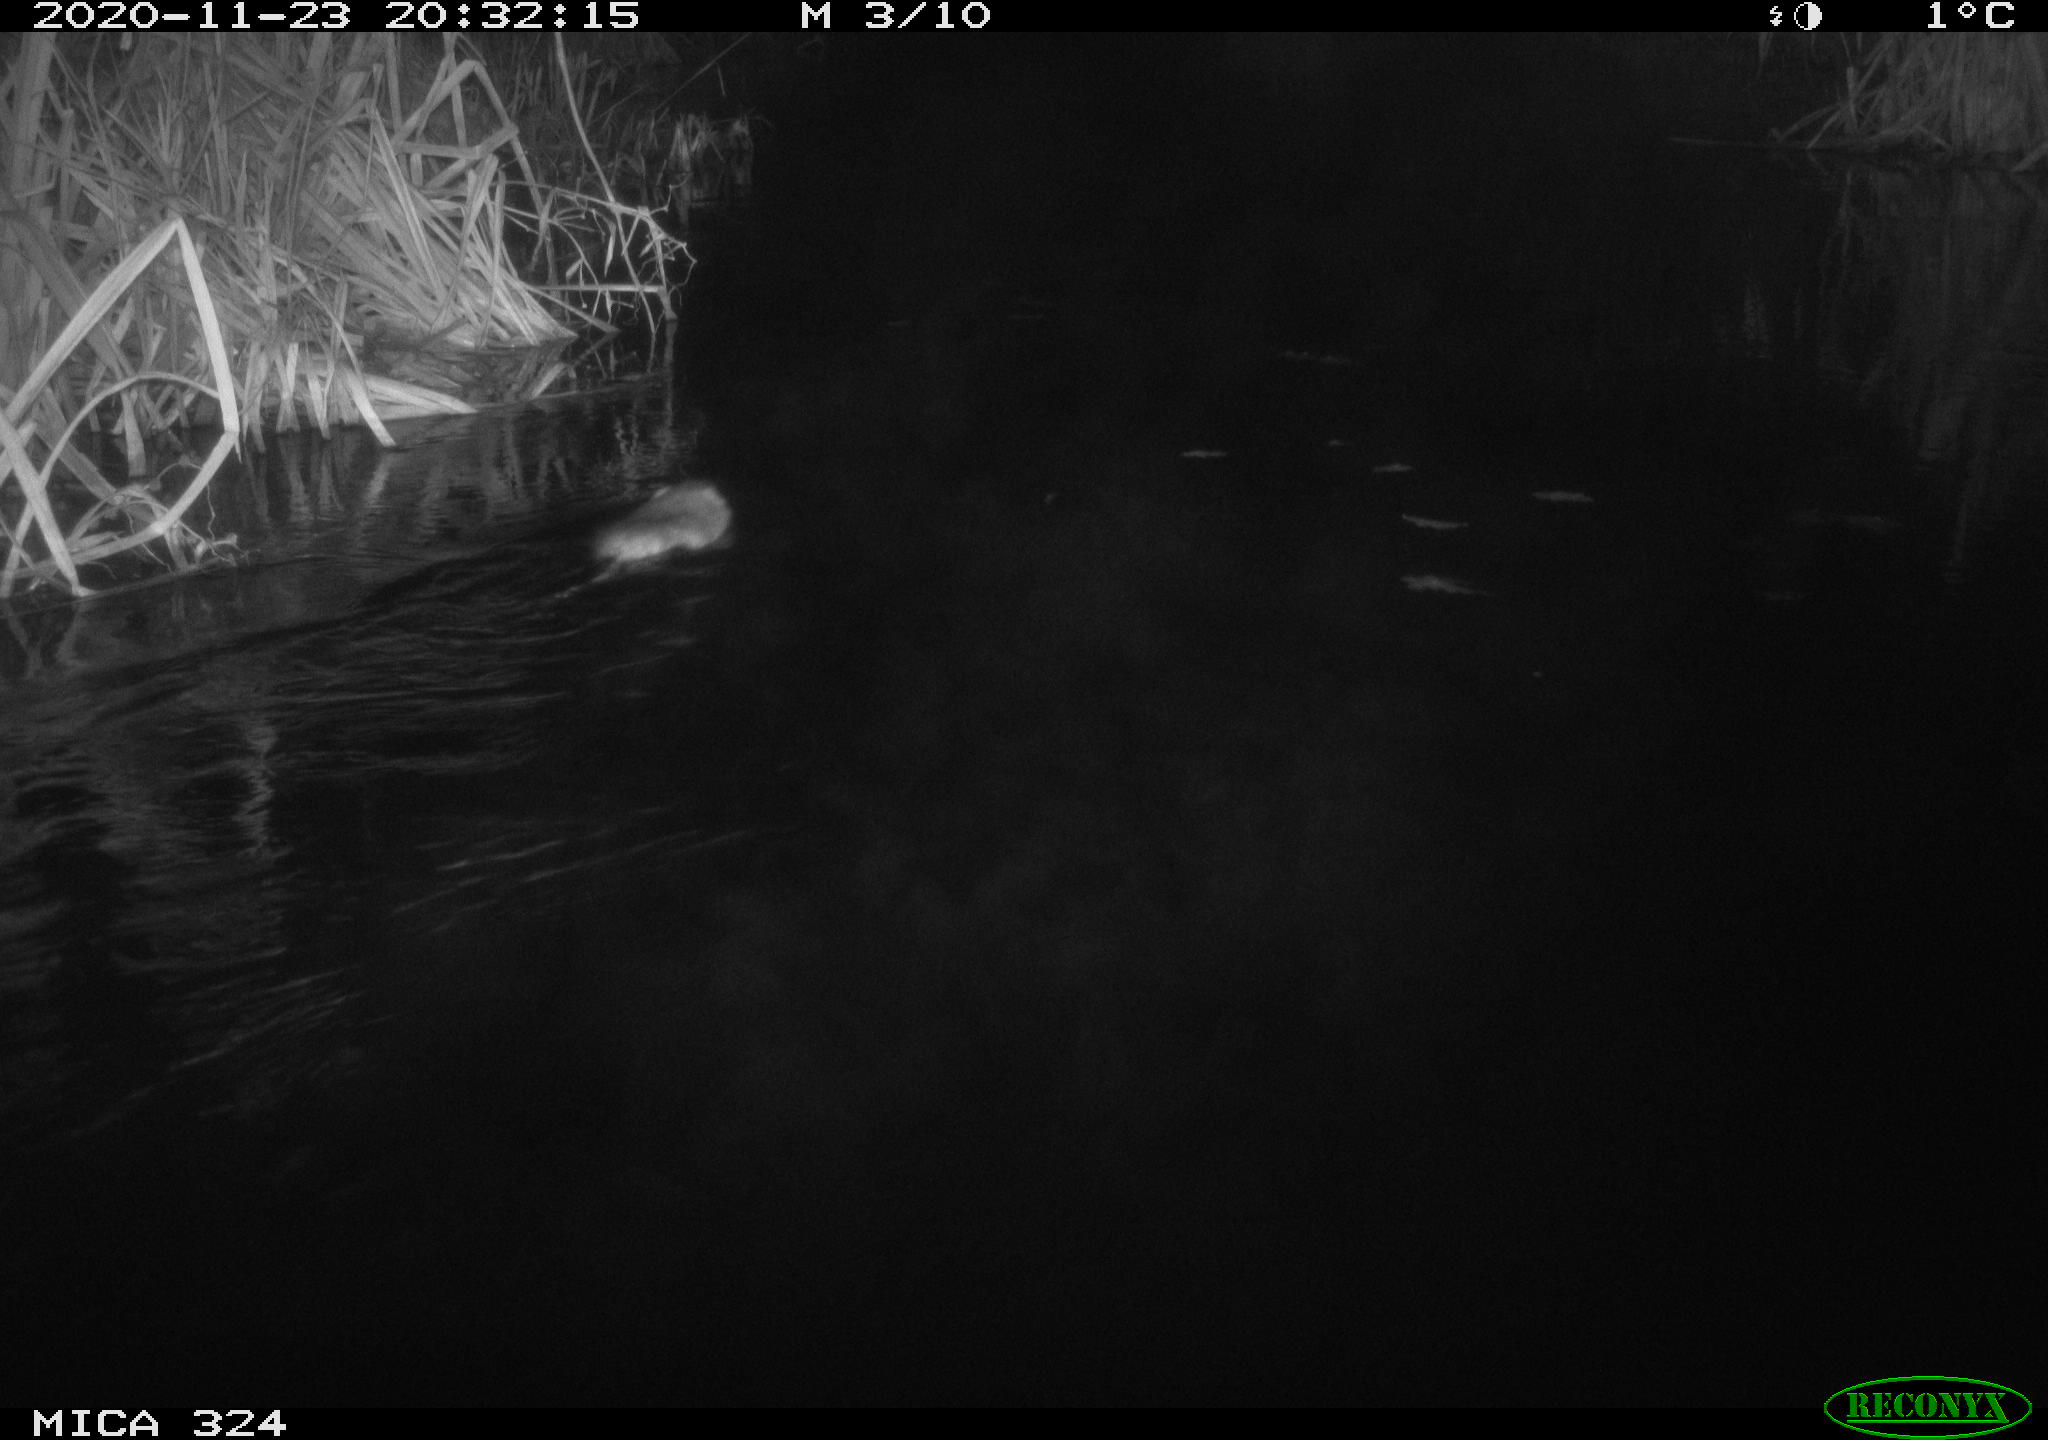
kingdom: Animalia
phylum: Chordata
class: Mammalia
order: Rodentia
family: Cricetidae
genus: Ondatra
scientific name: Ondatra zibethicus
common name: Muskrat
